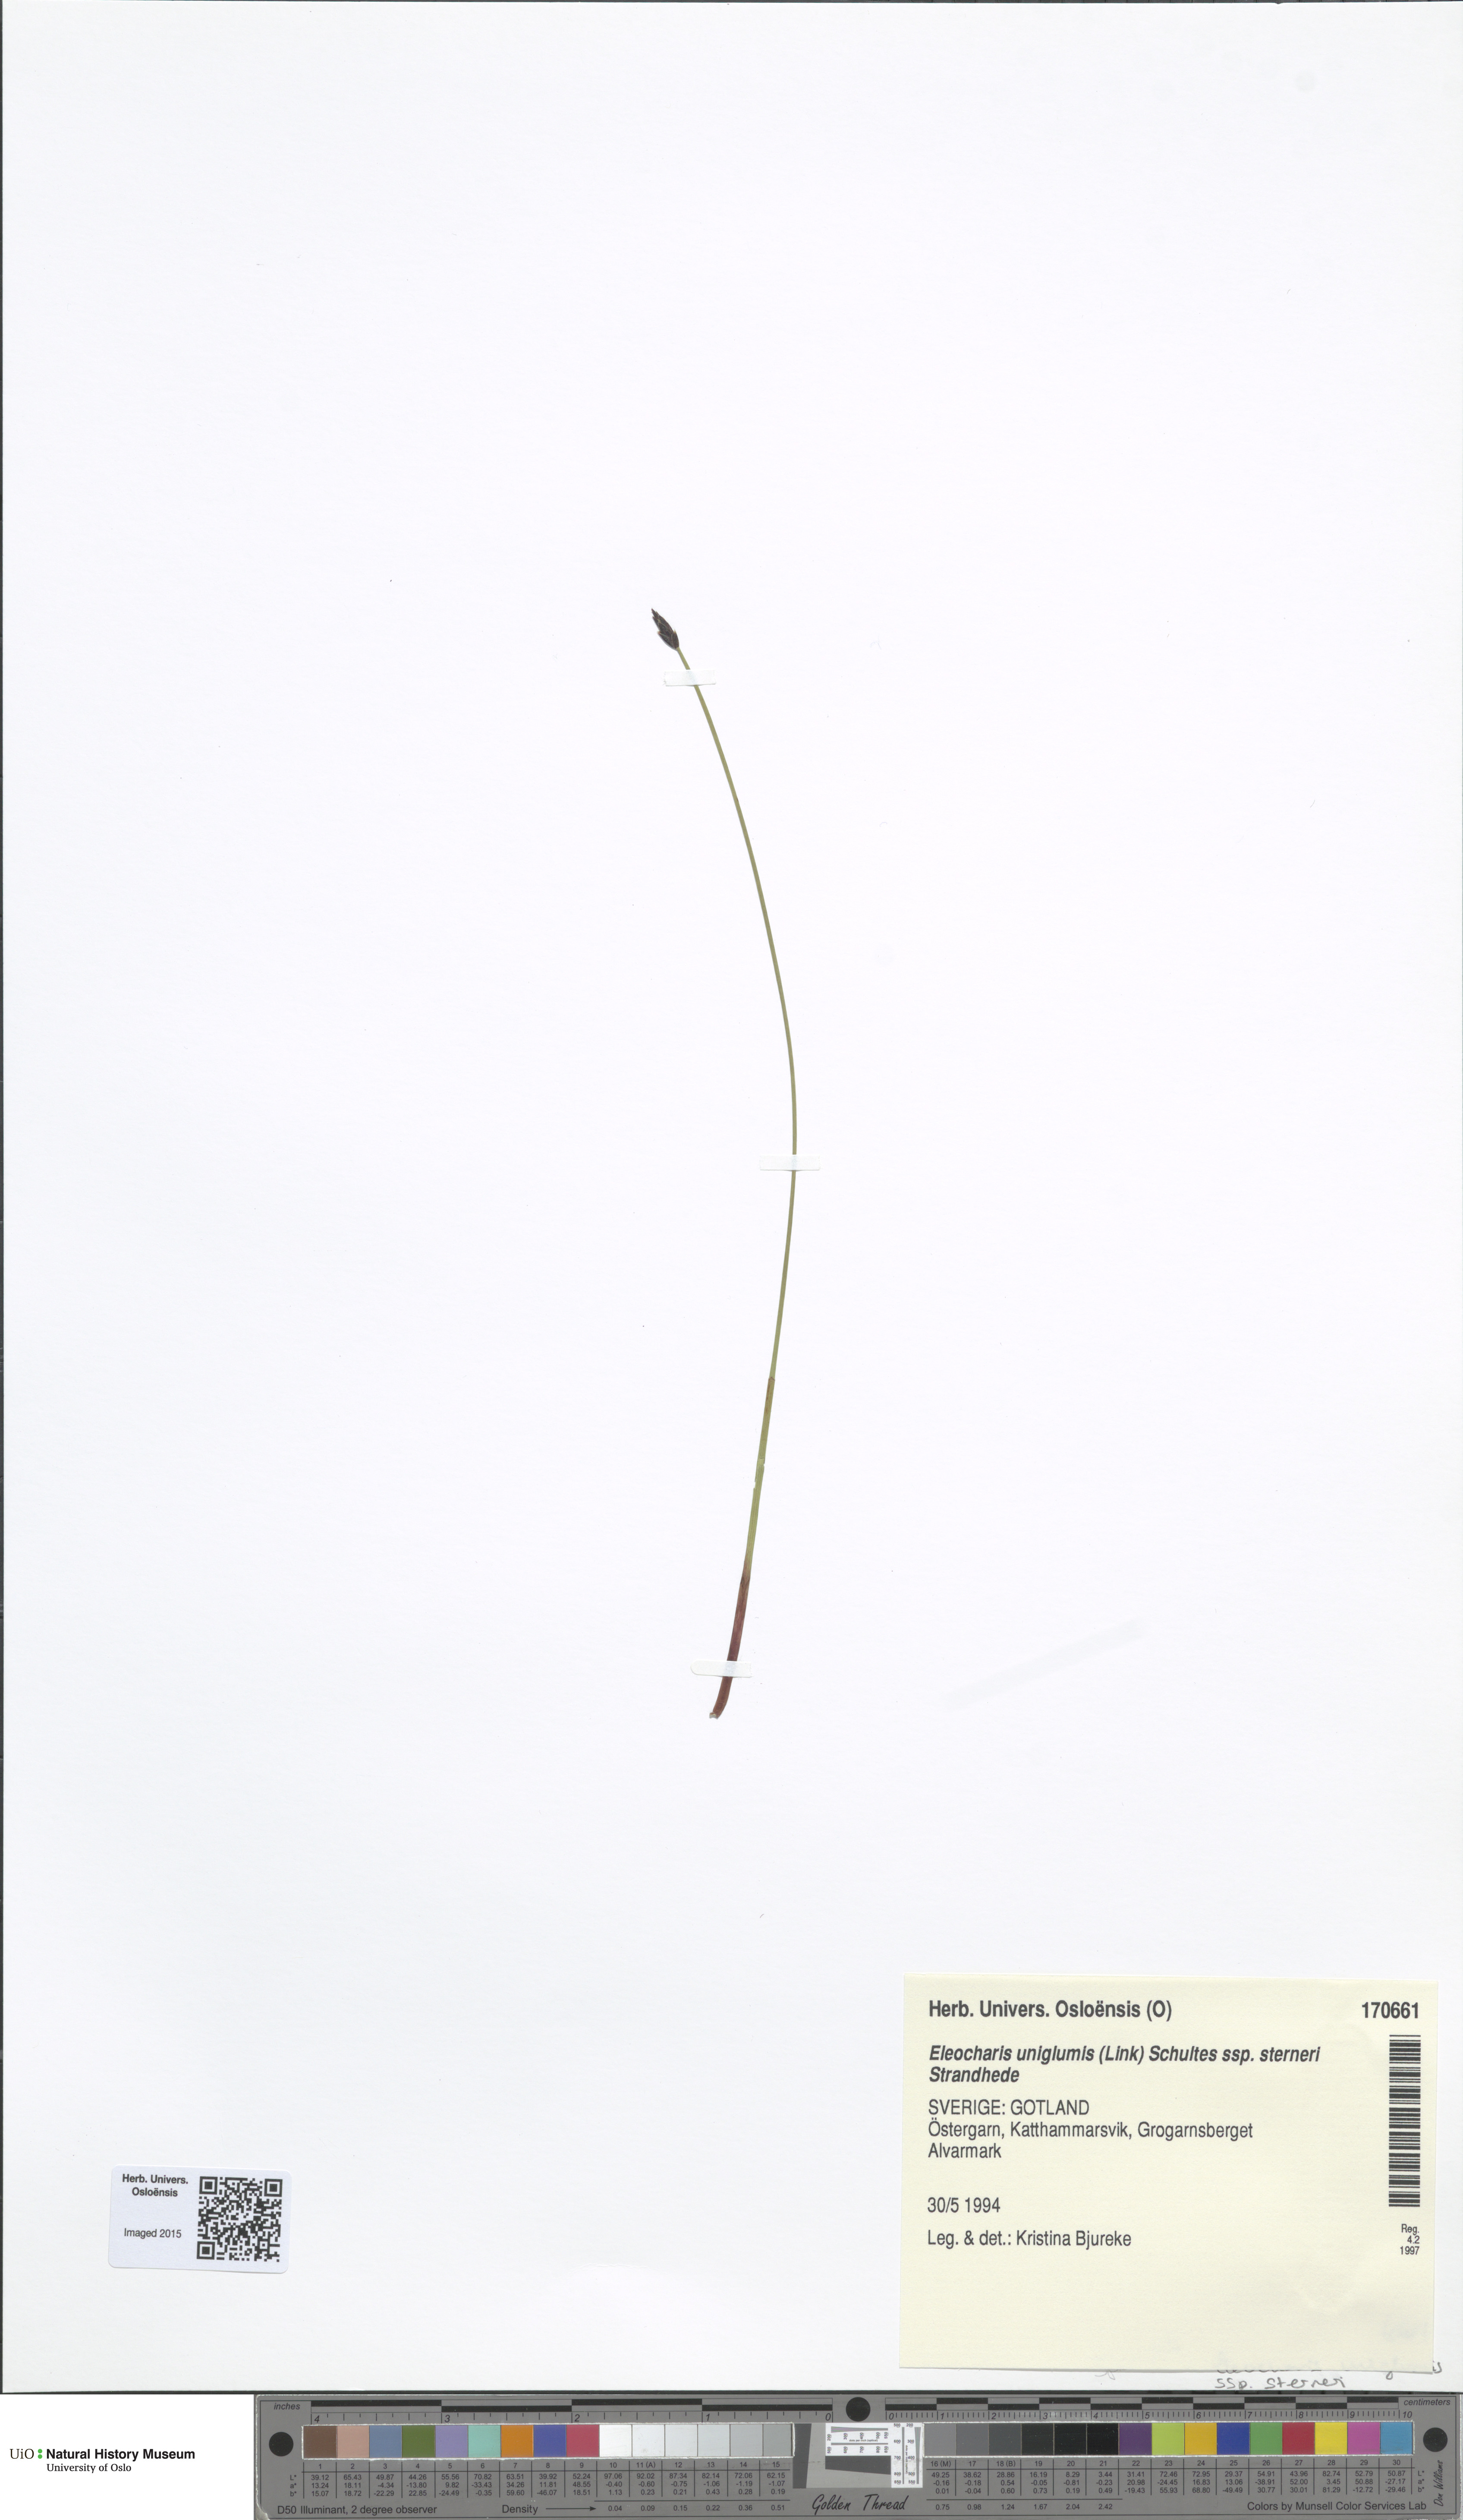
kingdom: Plantae
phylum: Tracheophyta
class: Liliopsida
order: Poales
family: Cyperaceae
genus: Eleocharis
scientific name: Eleocharis uniglumis
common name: Slender spike-rush
